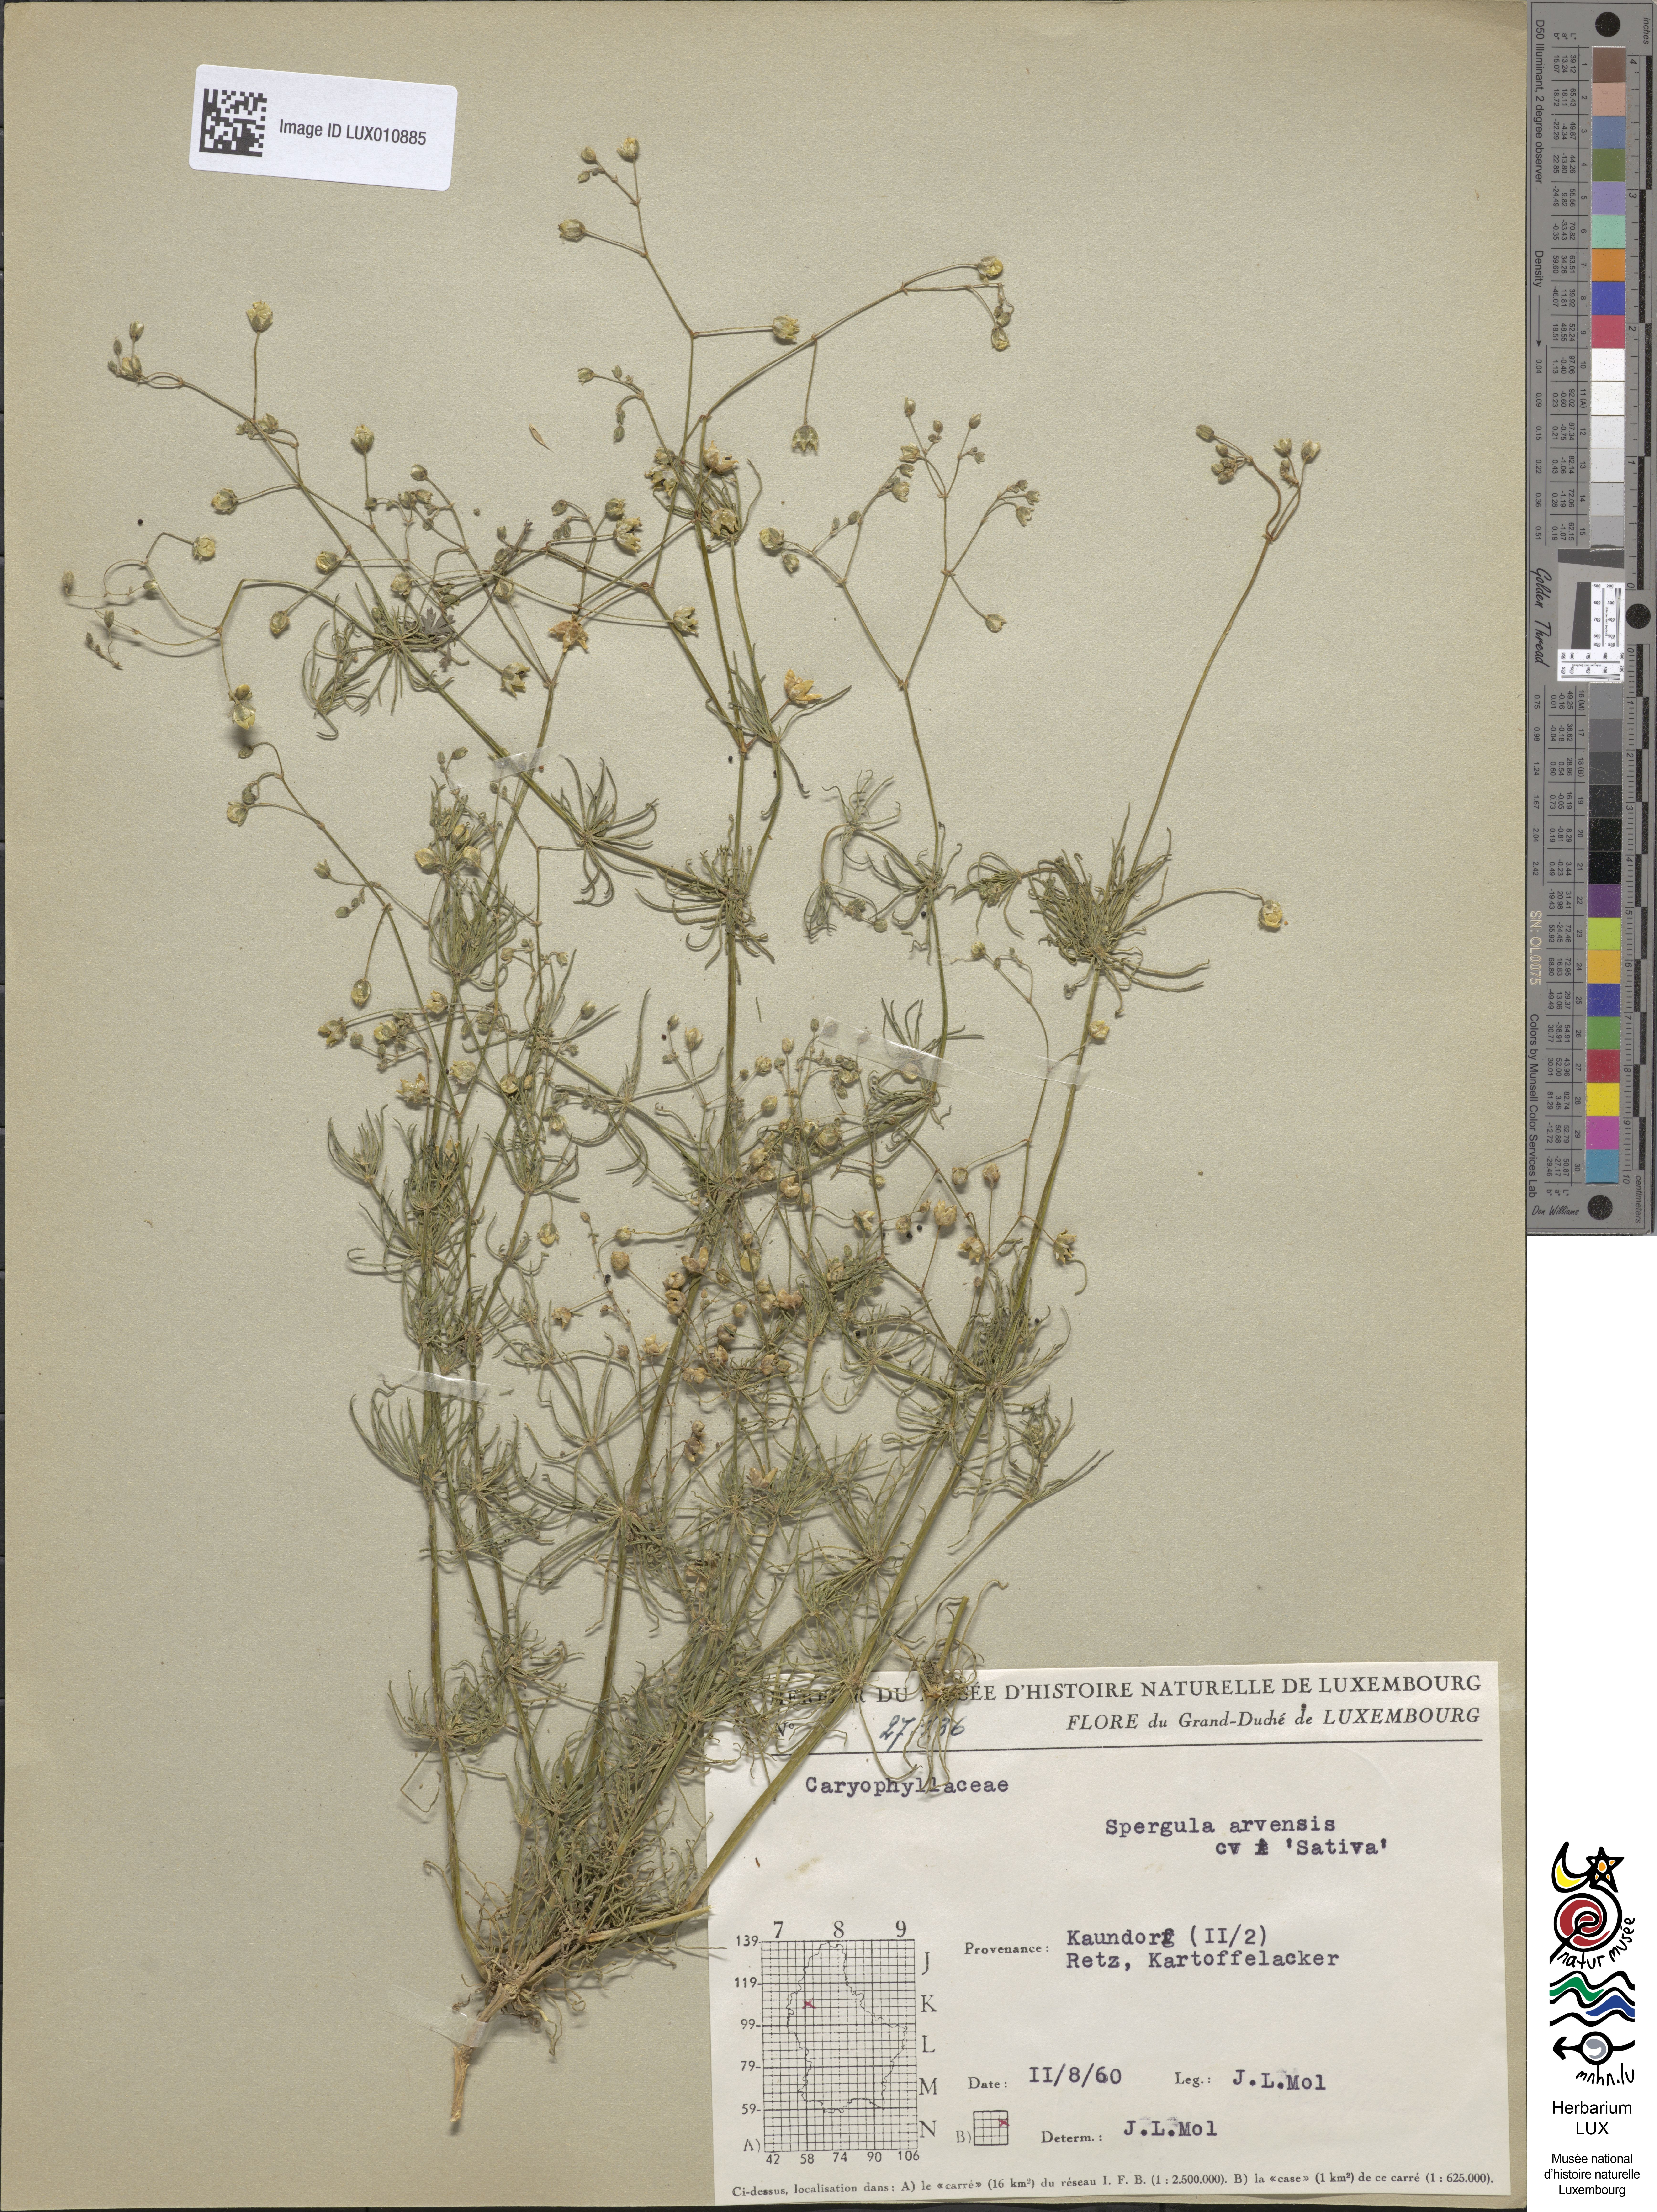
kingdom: Plantae
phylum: Tracheophyta
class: Magnoliopsida
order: Caryophyllales
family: Caryophyllaceae
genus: Spergula
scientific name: Spergula arvensis
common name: Corn spurrey
